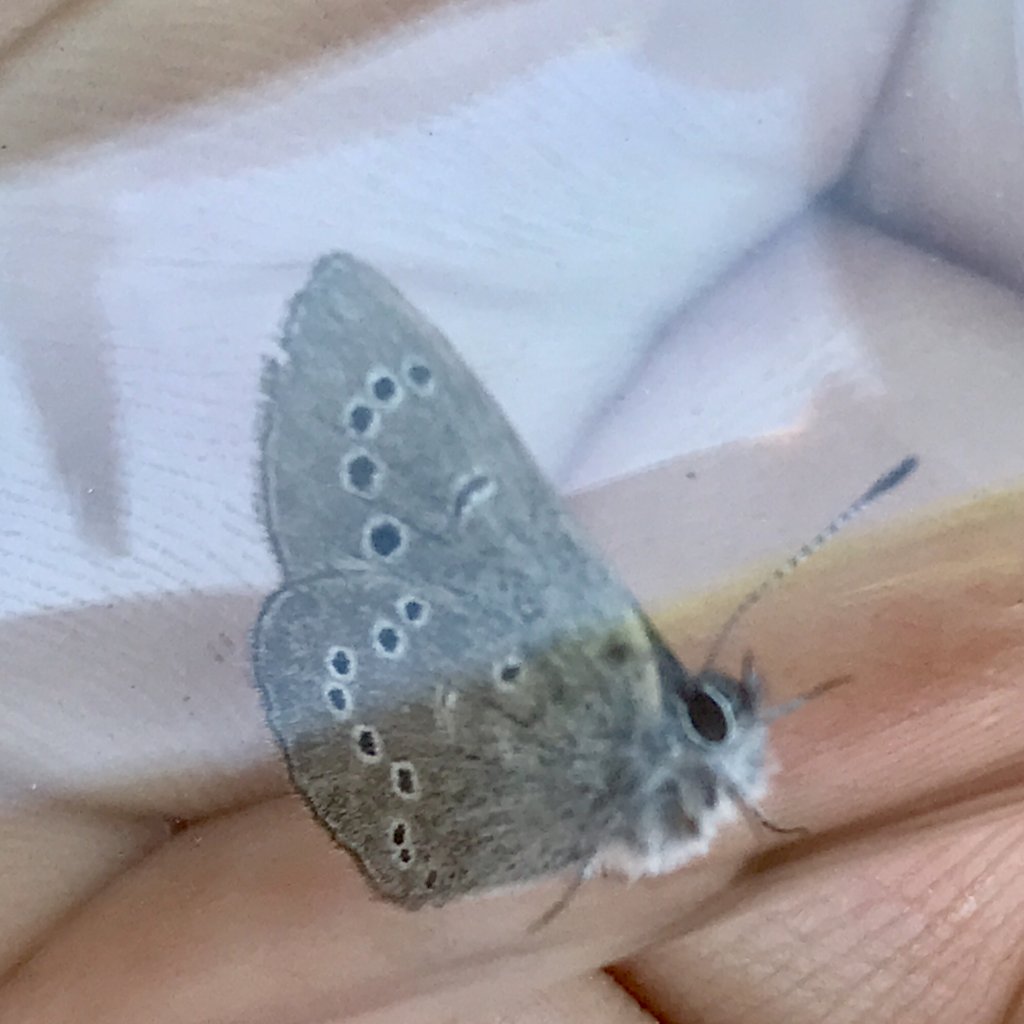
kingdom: Animalia
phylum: Arthropoda
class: Insecta
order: Lepidoptera
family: Lycaenidae
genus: Glaucopsyche
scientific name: Glaucopsyche lygdamus
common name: Silvery Blue
